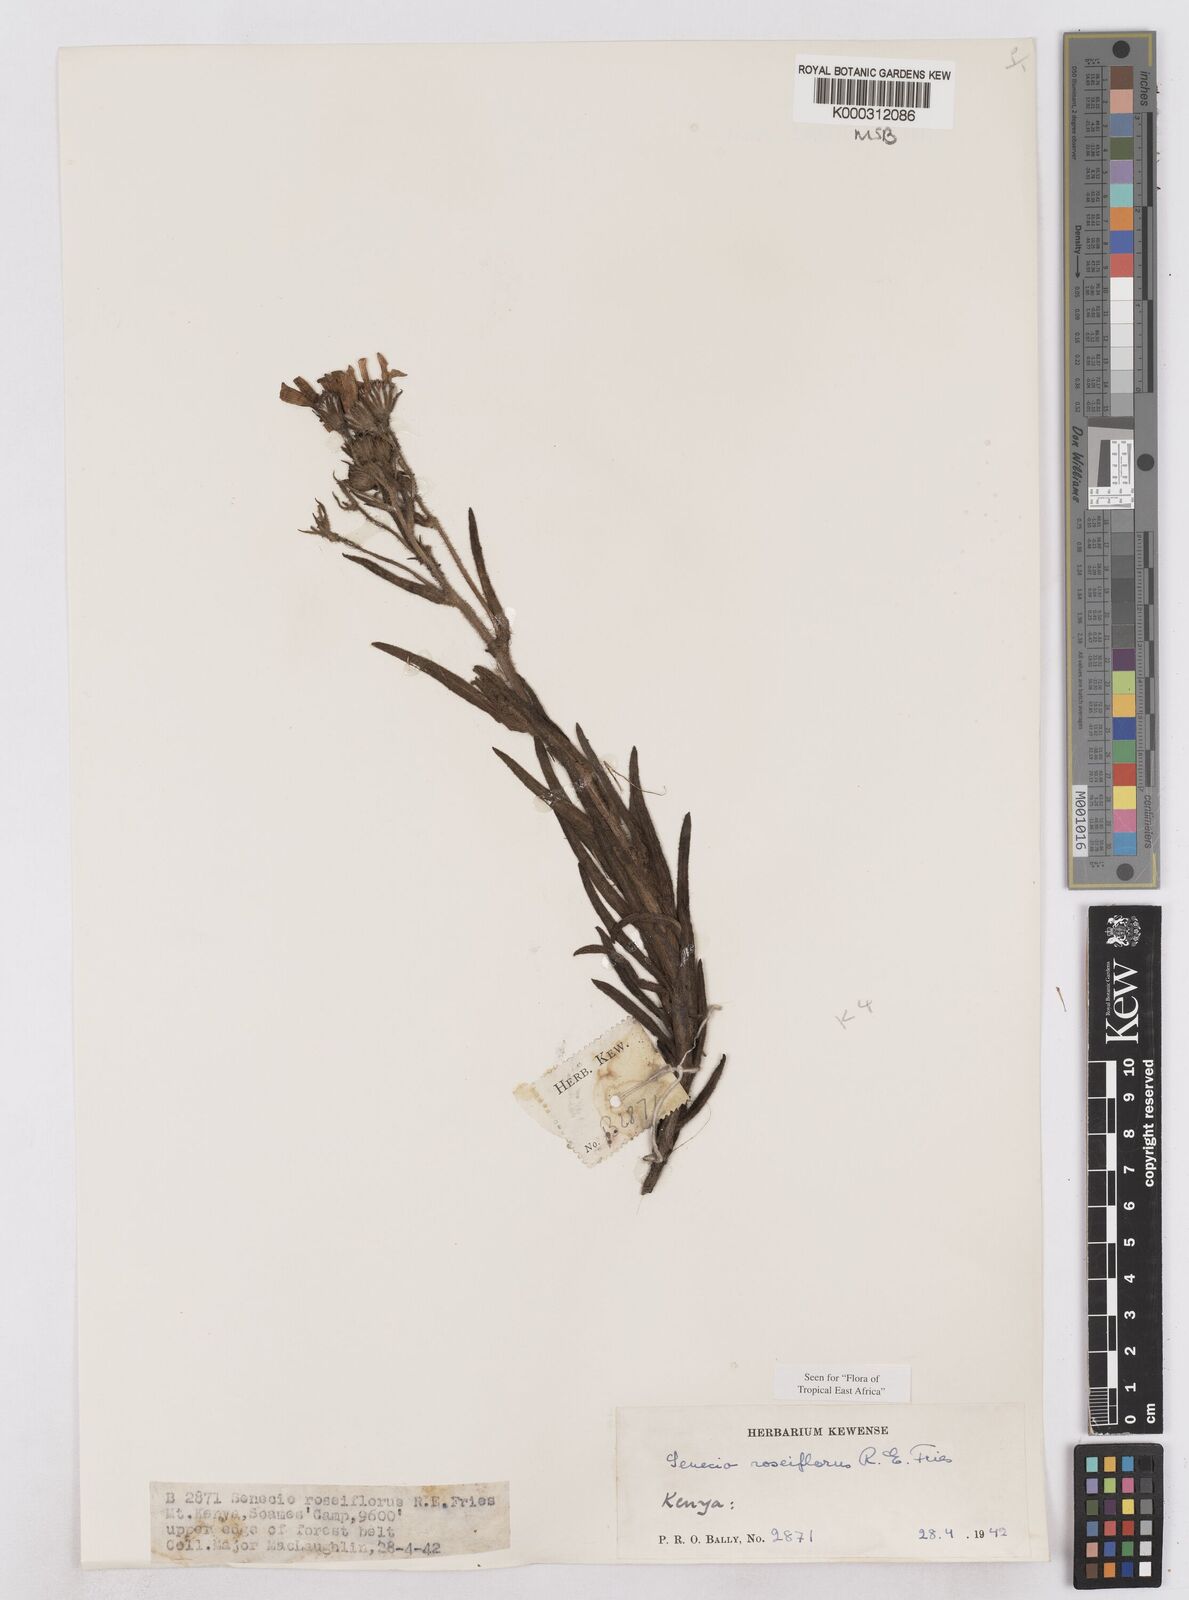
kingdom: Plantae
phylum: Tracheophyta
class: Magnoliopsida
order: Asterales
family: Asteraceae
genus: Senecio
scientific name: Senecio roseiflorus
